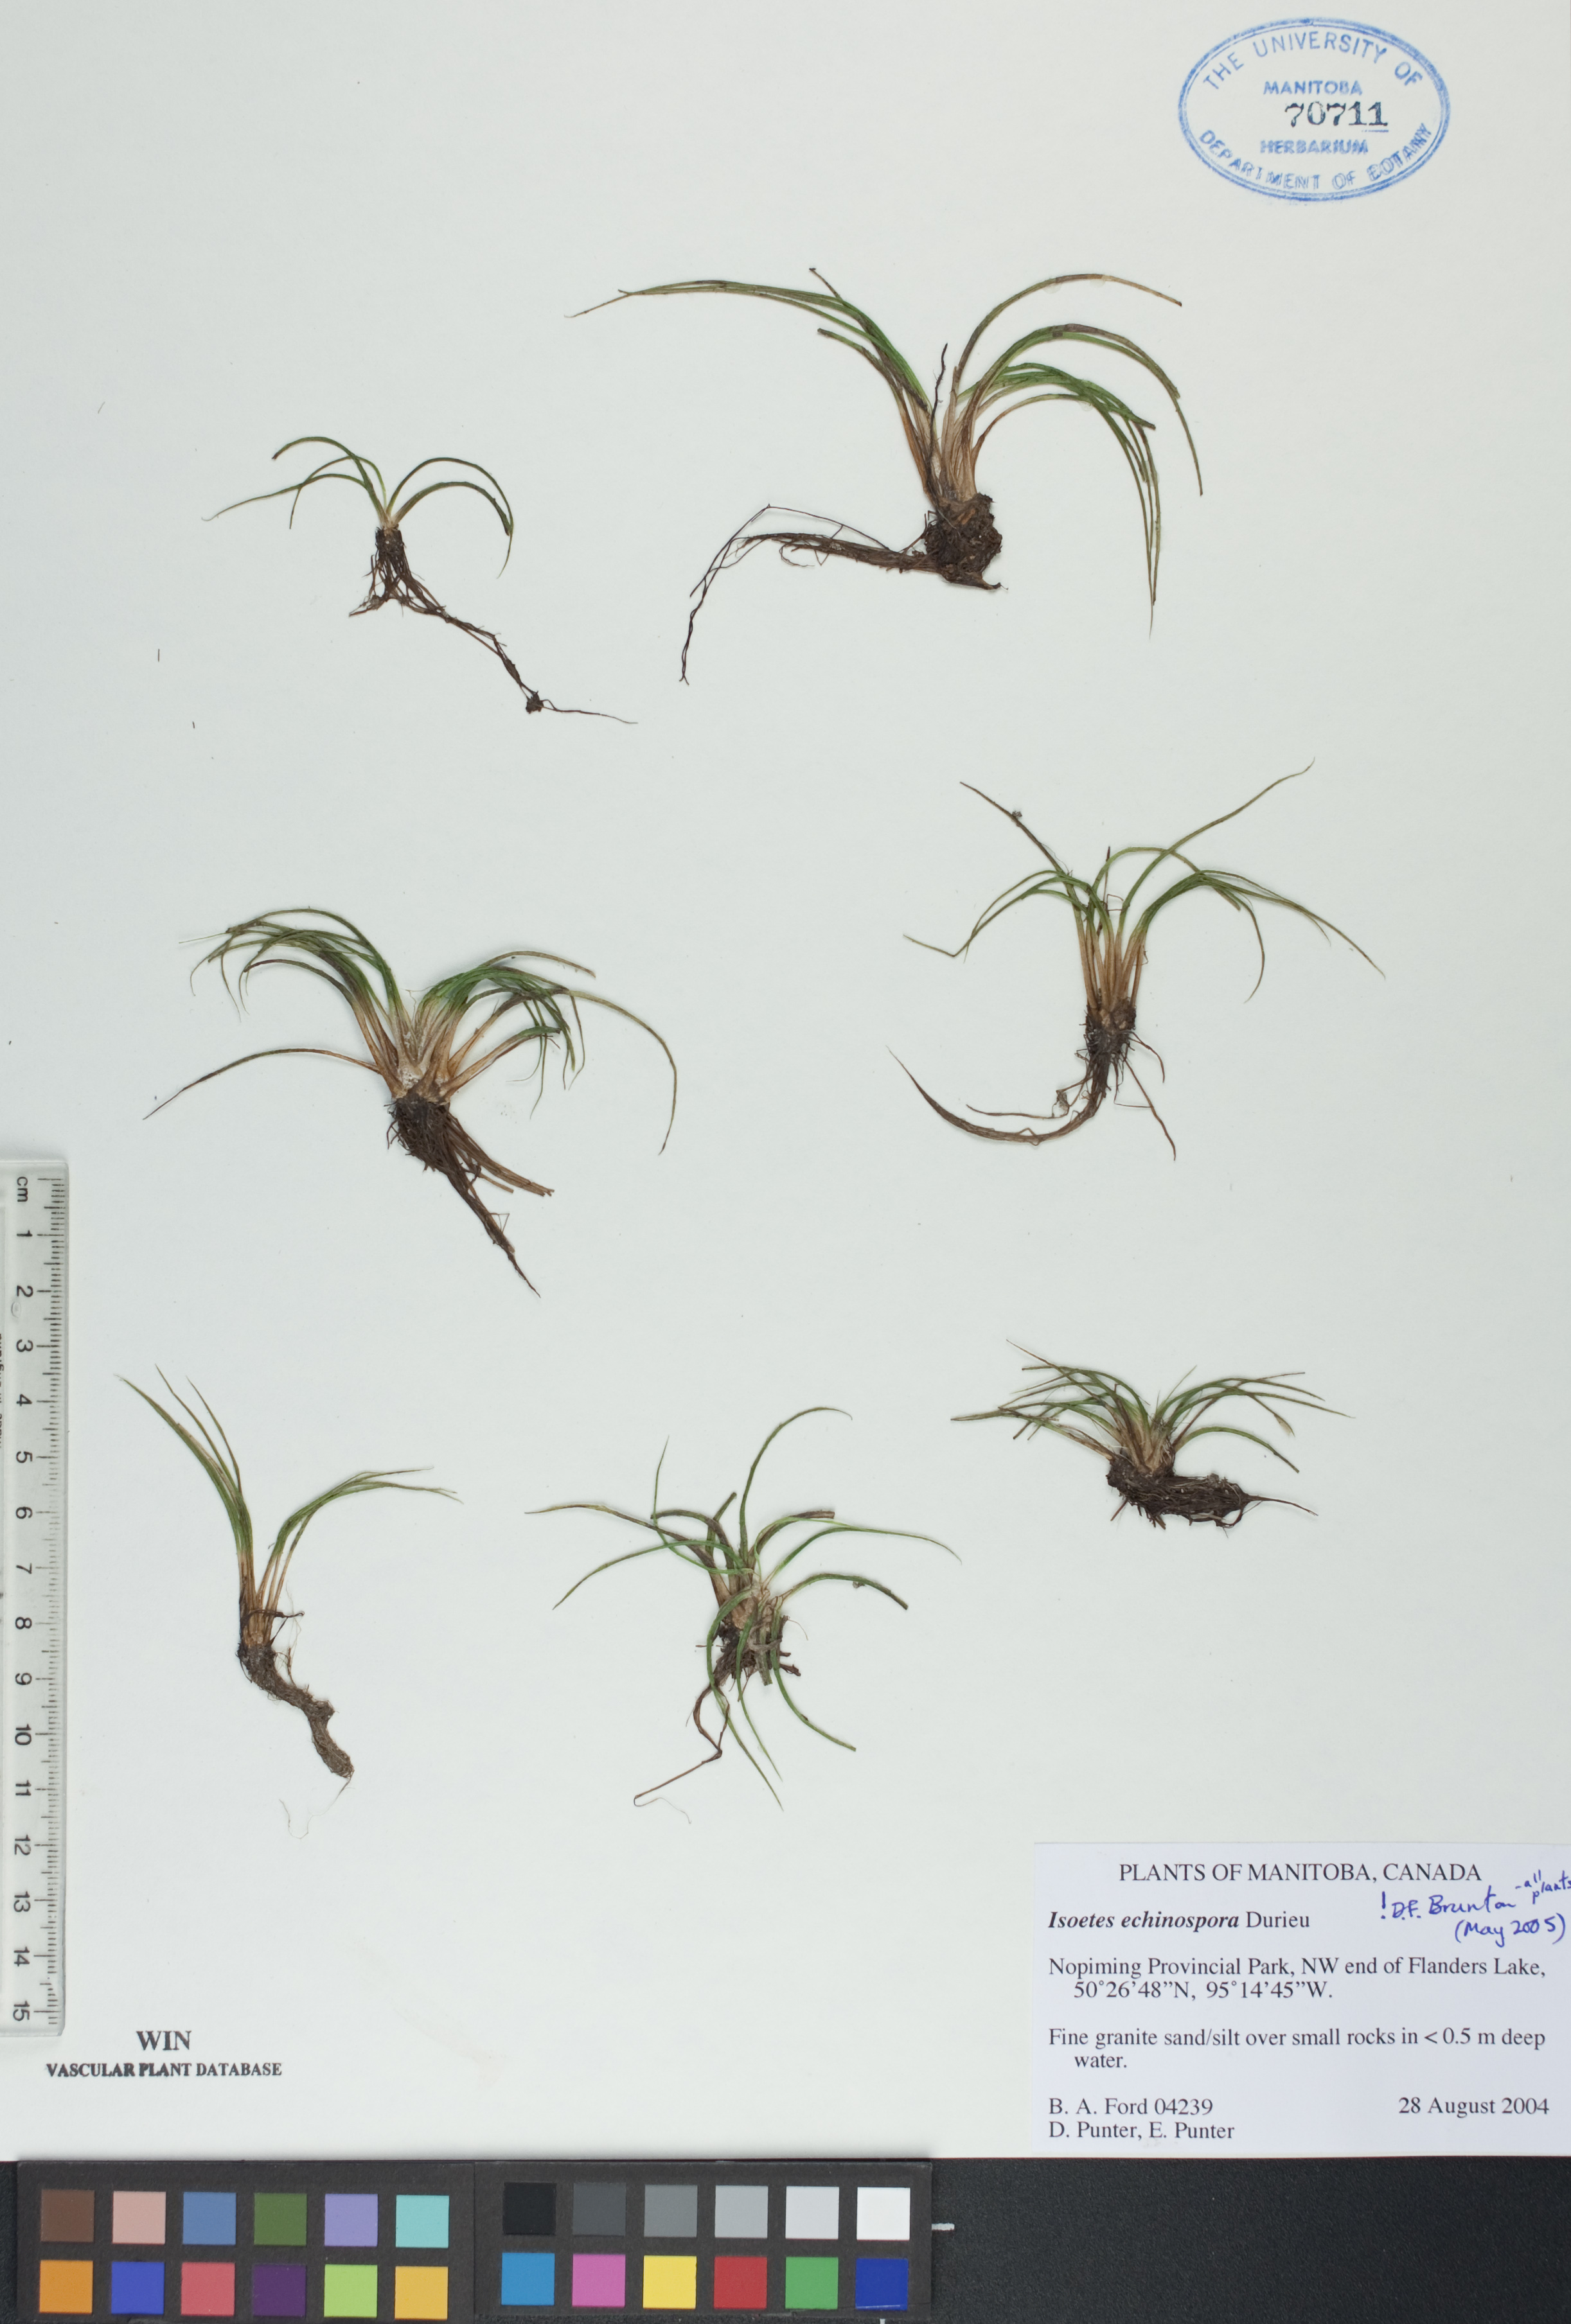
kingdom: Plantae
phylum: Tracheophyta
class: Lycopodiopsida
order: Isoetales
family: Isoetaceae
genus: Isoetes
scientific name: Isoetes echinospora
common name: Spring quillwort
